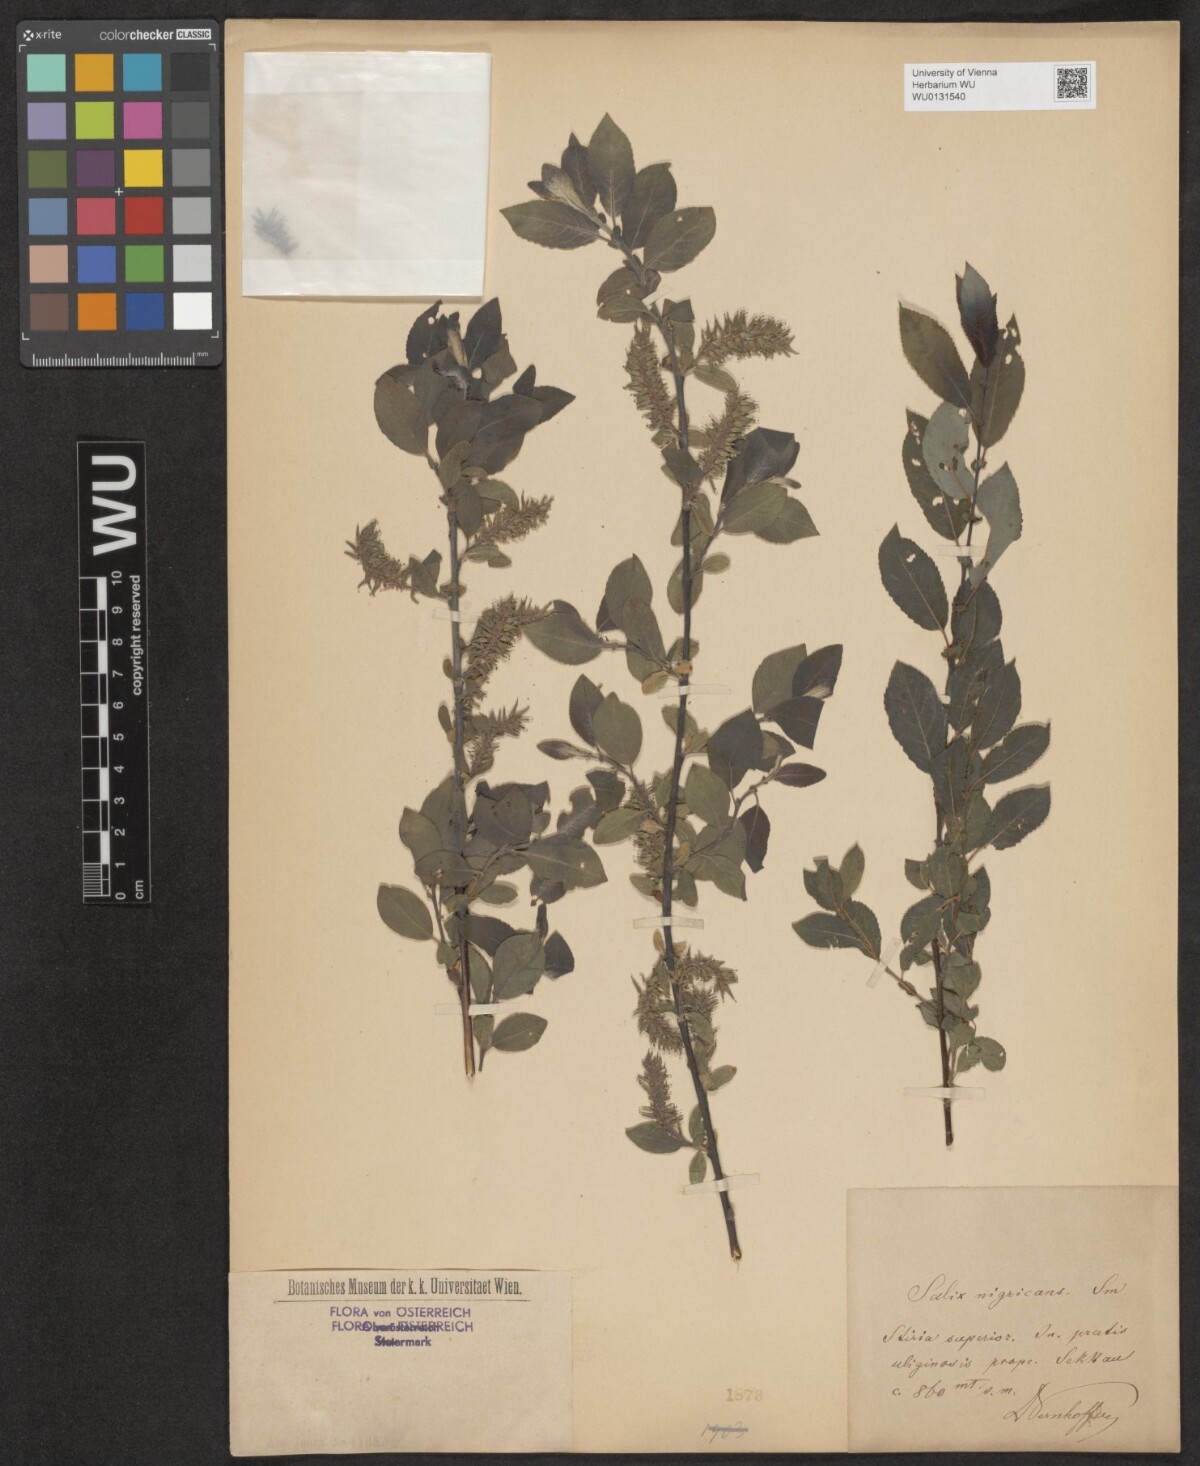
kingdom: Plantae
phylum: Tracheophyta
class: Magnoliopsida
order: Malpighiales
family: Salicaceae
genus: Salix
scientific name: Salix myrsinifolia
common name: Dark-leaved willow
